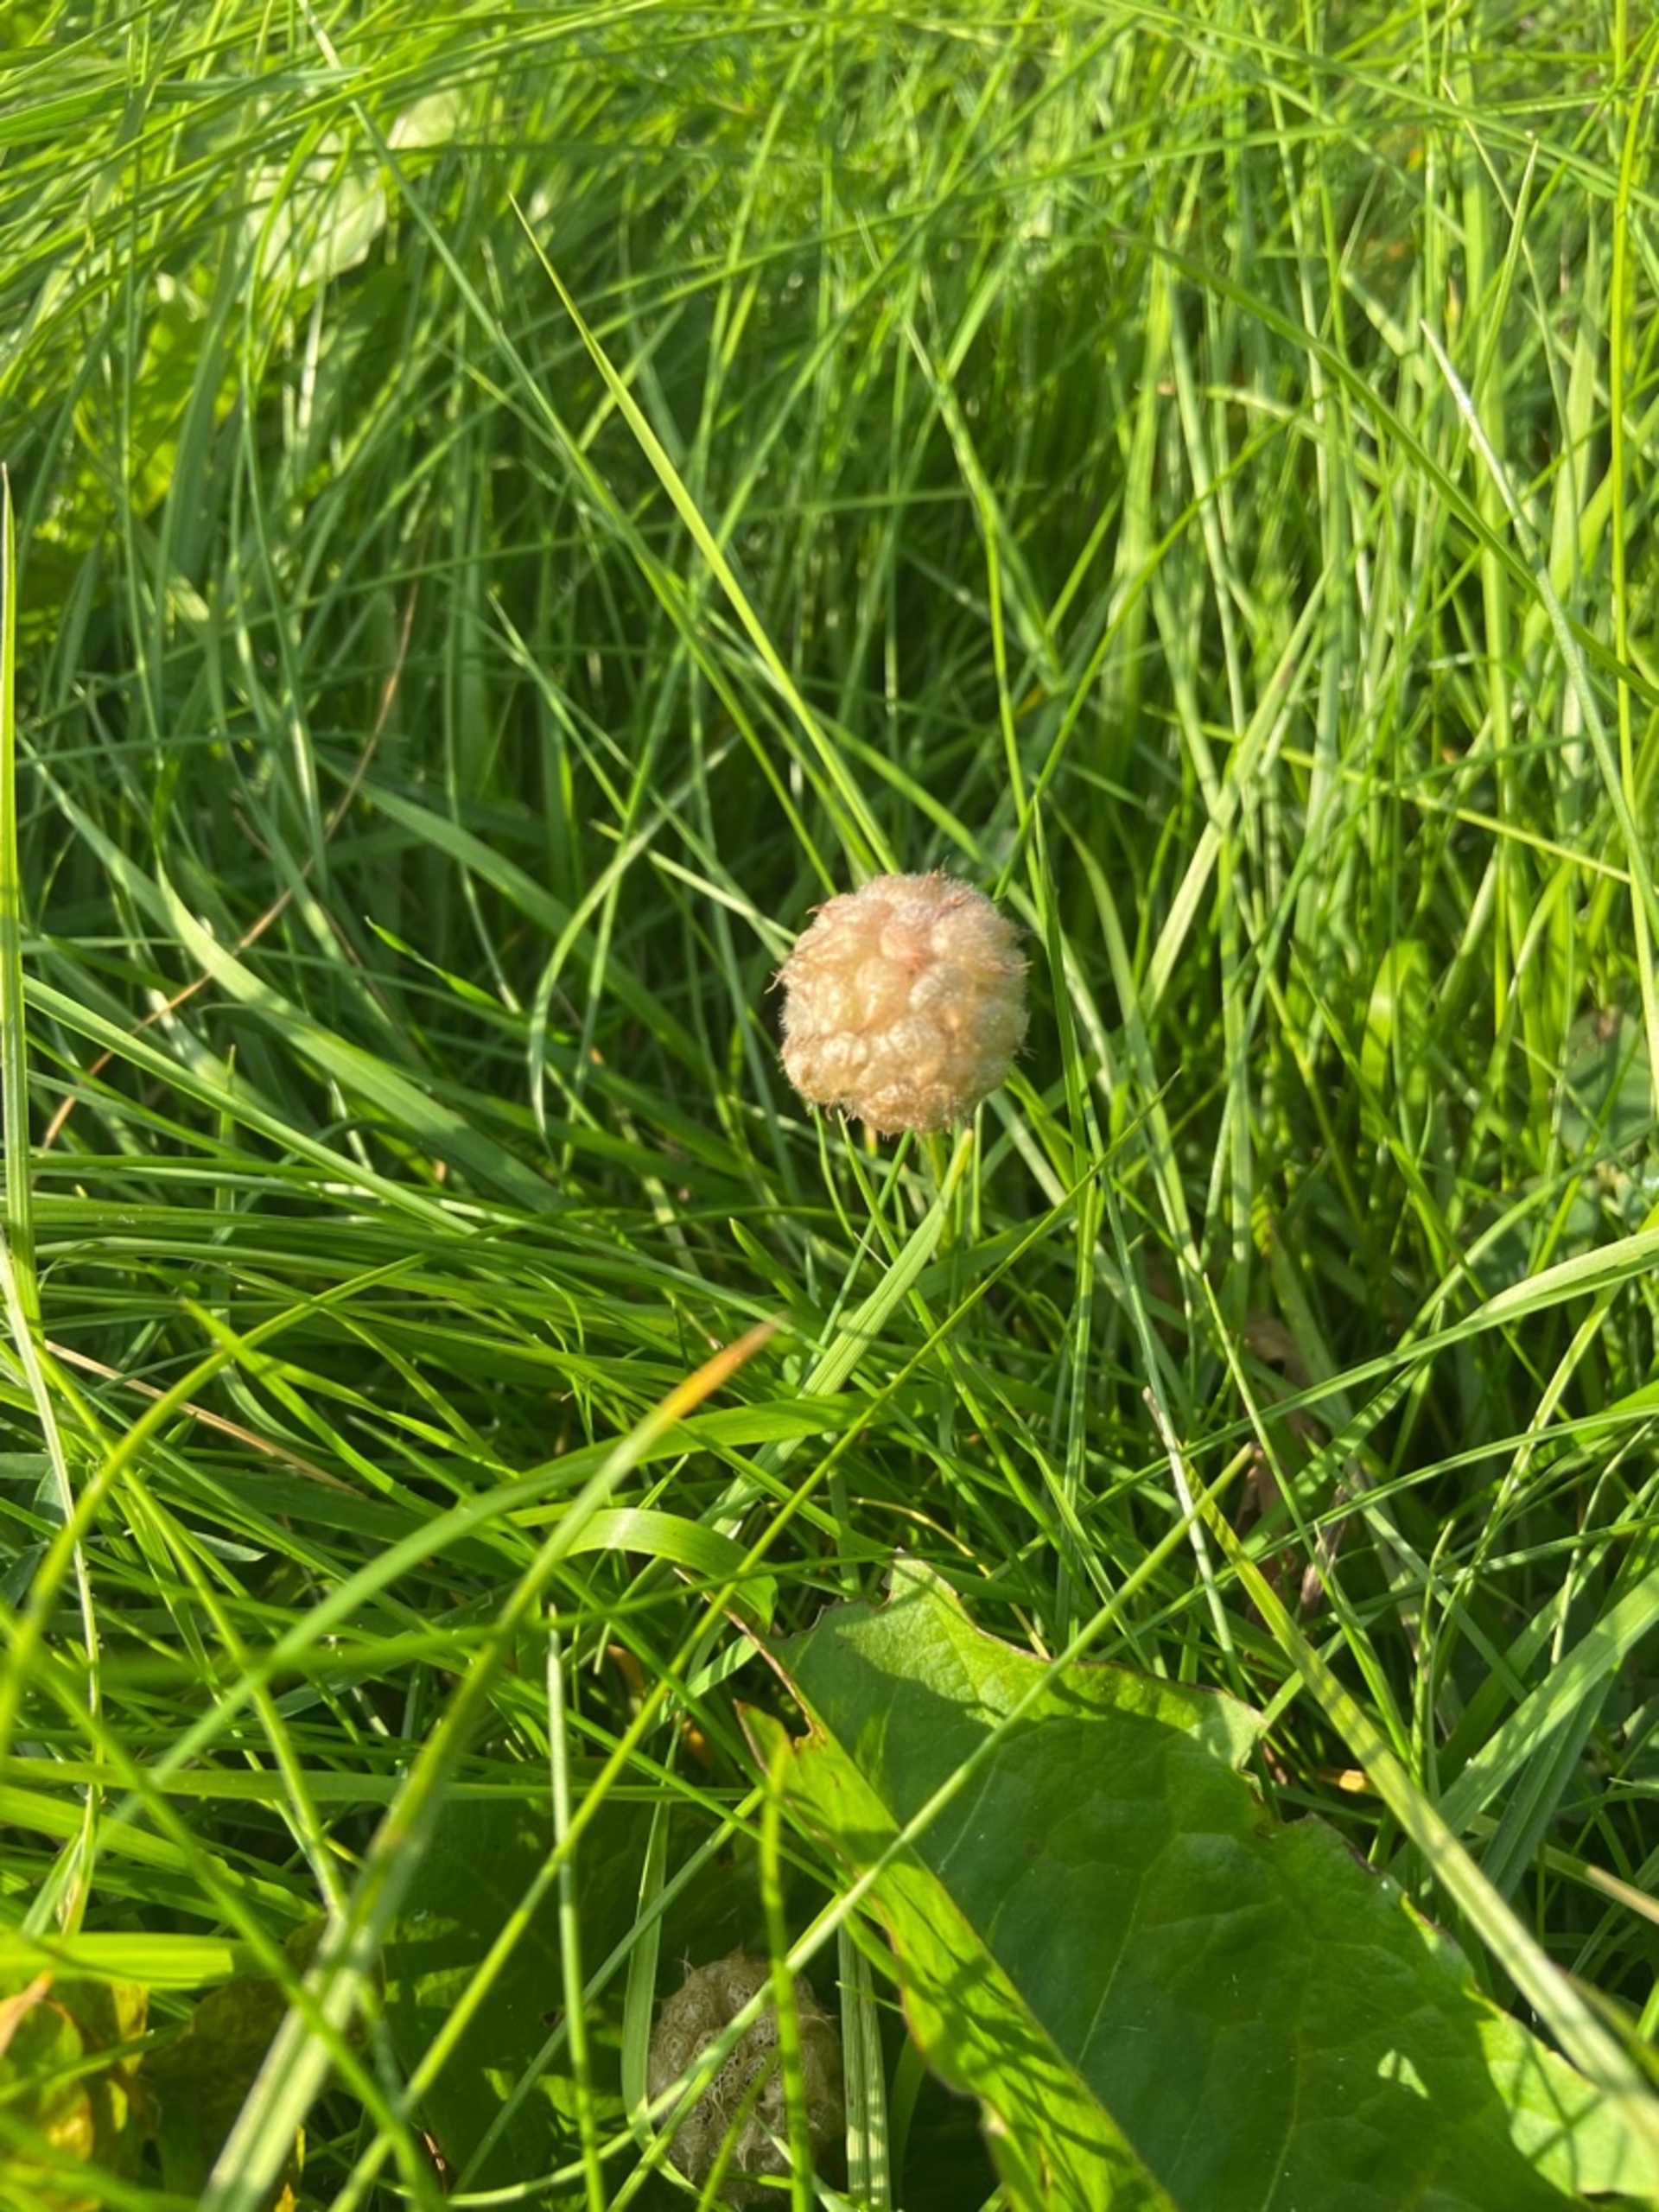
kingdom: Plantae
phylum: Tracheophyta
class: Magnoliopsida
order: Fabales
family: Fabaceae
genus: Trifolium
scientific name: Trifolium fragiferum
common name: Jordbær-kløver
